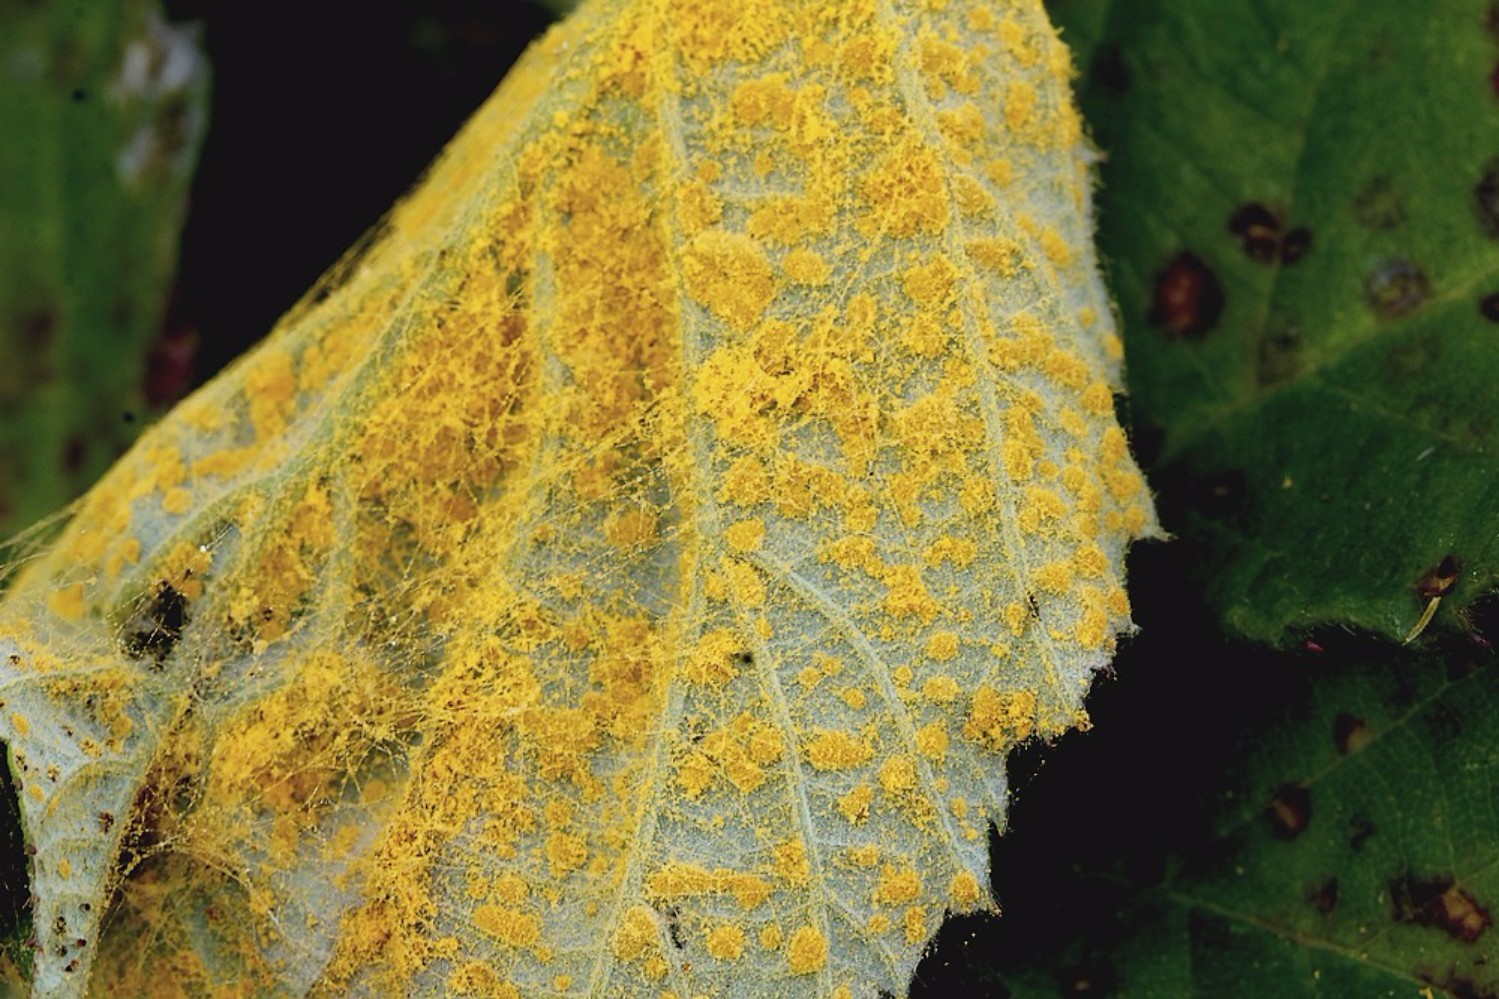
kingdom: Fungi
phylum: Basidiomycota
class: Pucciniomycetes
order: Pucciniales
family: Phragmidiaceae
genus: Phragmidium
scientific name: Phragmidium
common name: flercellerust
